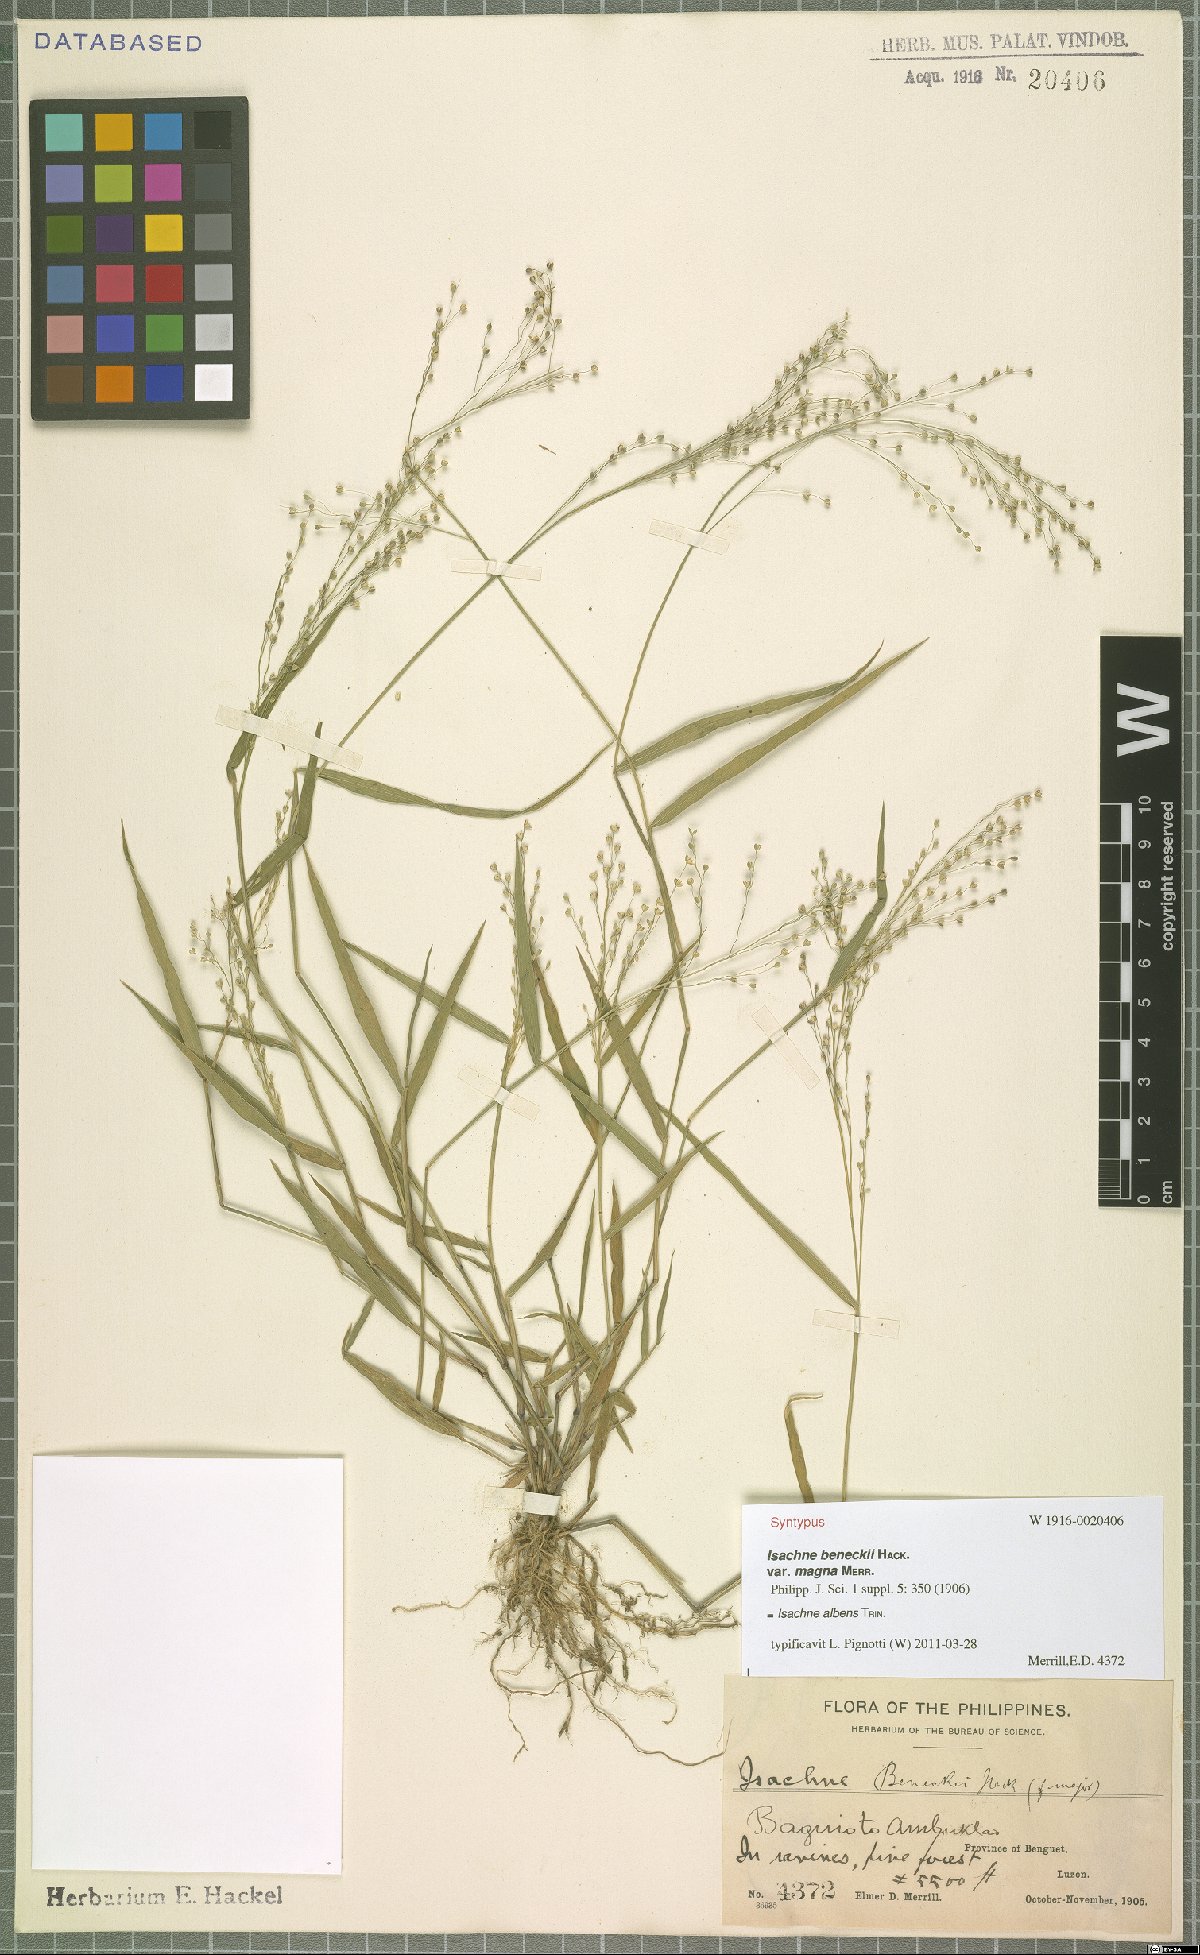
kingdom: Plantae
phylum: Tracheophyta
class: Liliopsida
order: Poales
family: Poaceae
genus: Isachne
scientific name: Isachne albens
